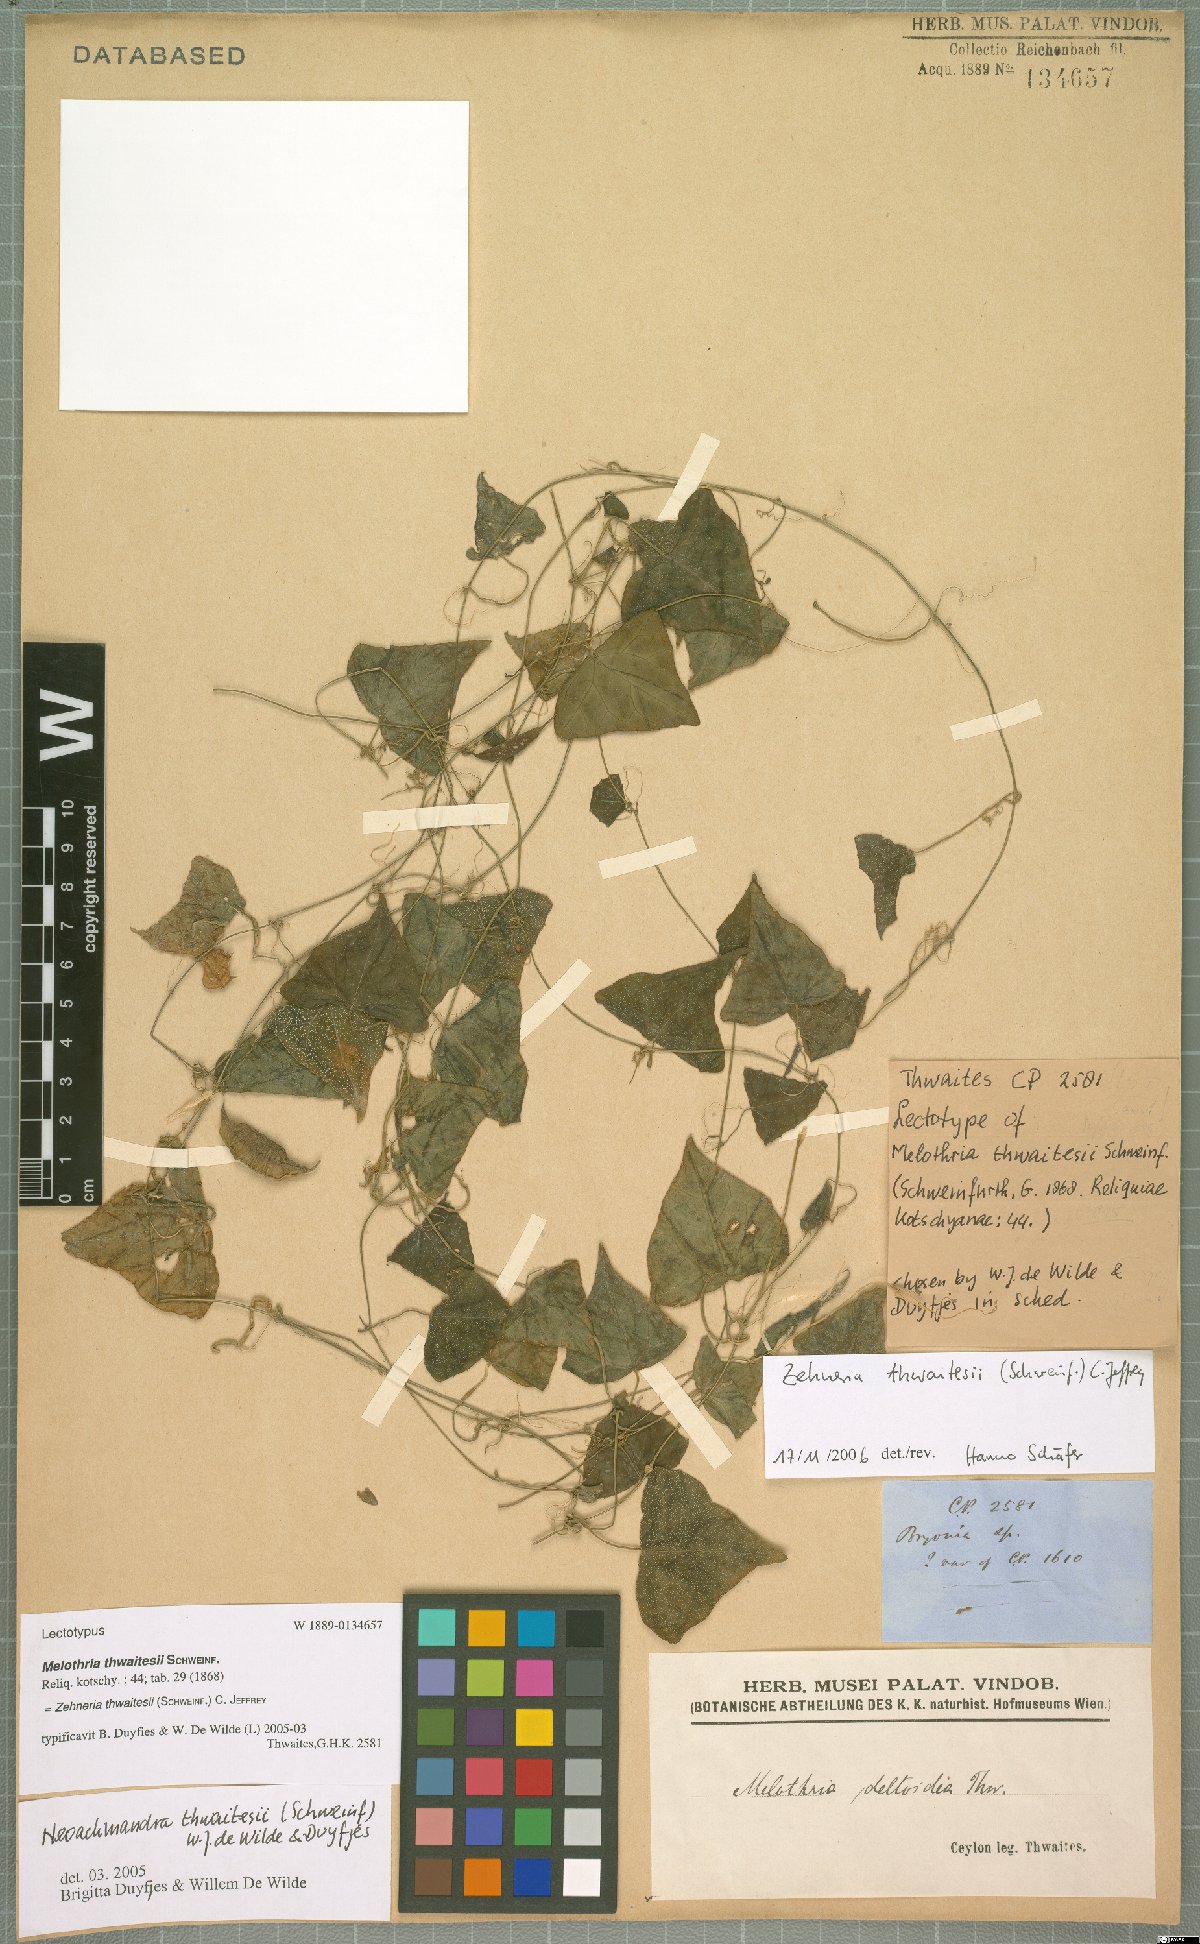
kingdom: Plantae
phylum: Tracheophyta
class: Magnoliopsida
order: Cucurbitales
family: Cucurbitaceae
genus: Zehneria
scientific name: Zehneria thwaitesii
